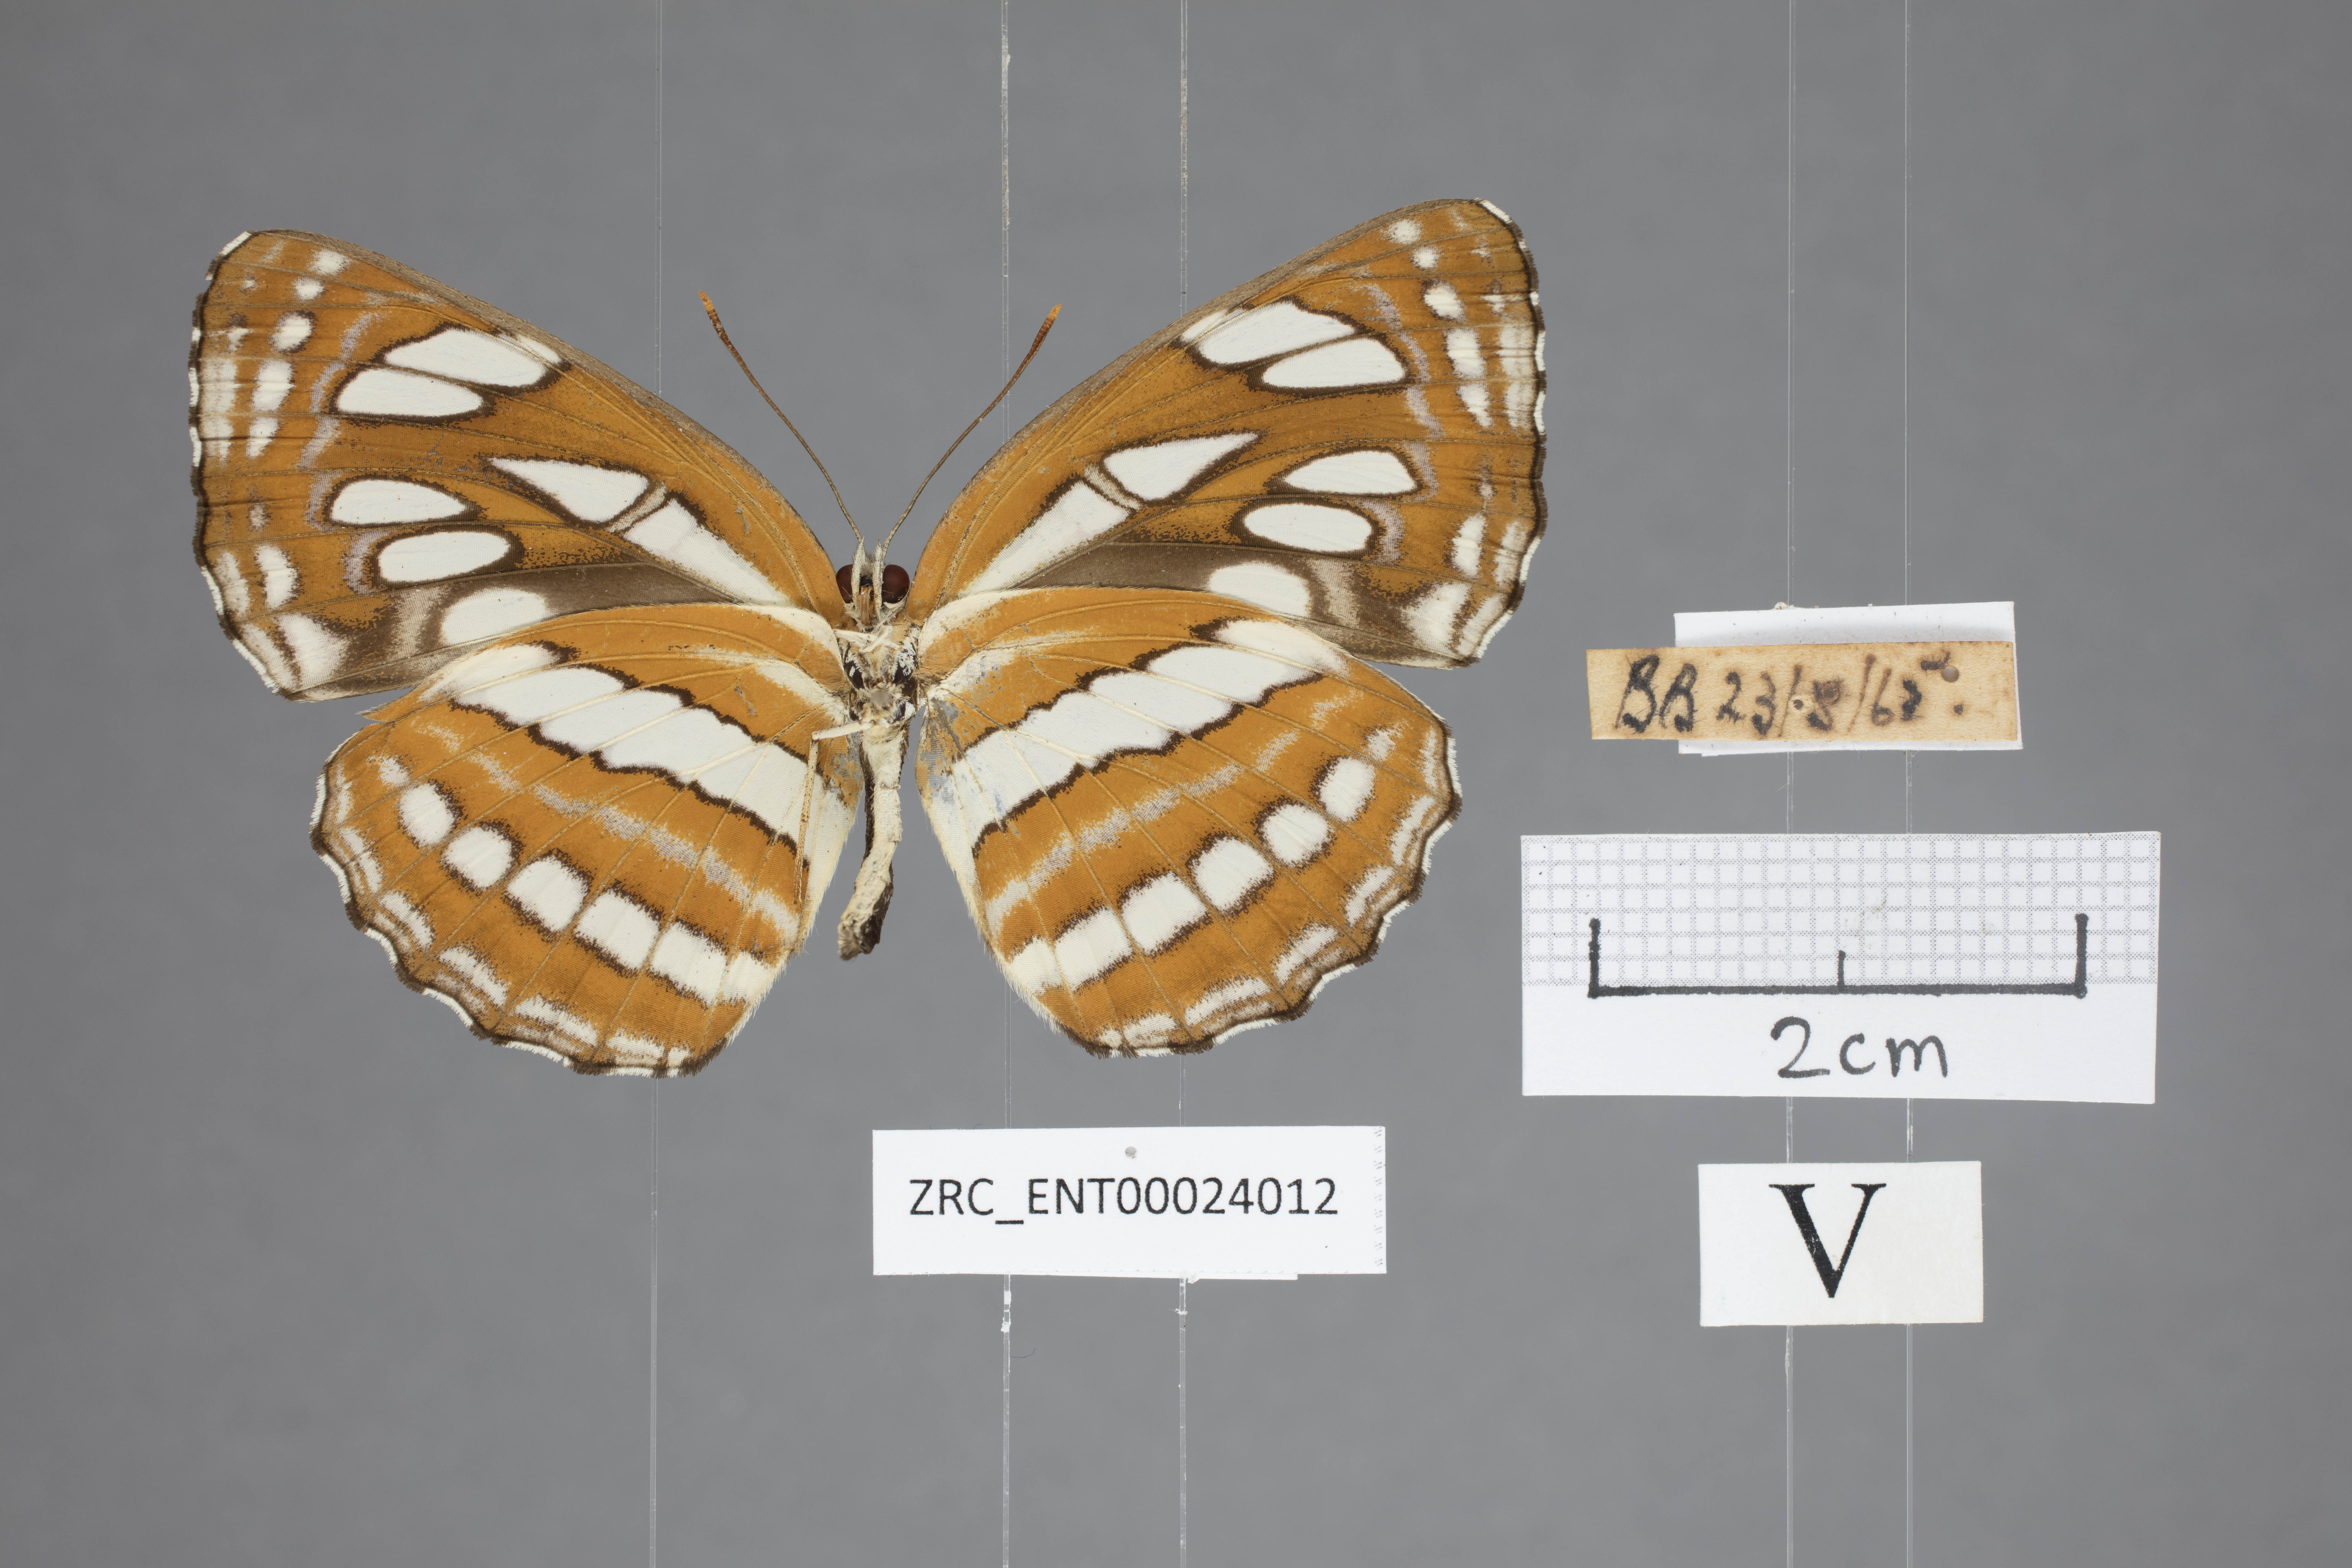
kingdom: Animalia
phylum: Arthropoda
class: Insecta
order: Lepidoptera
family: Nymphalidae
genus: Neptis
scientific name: Neptis hylas
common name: Common sailer
